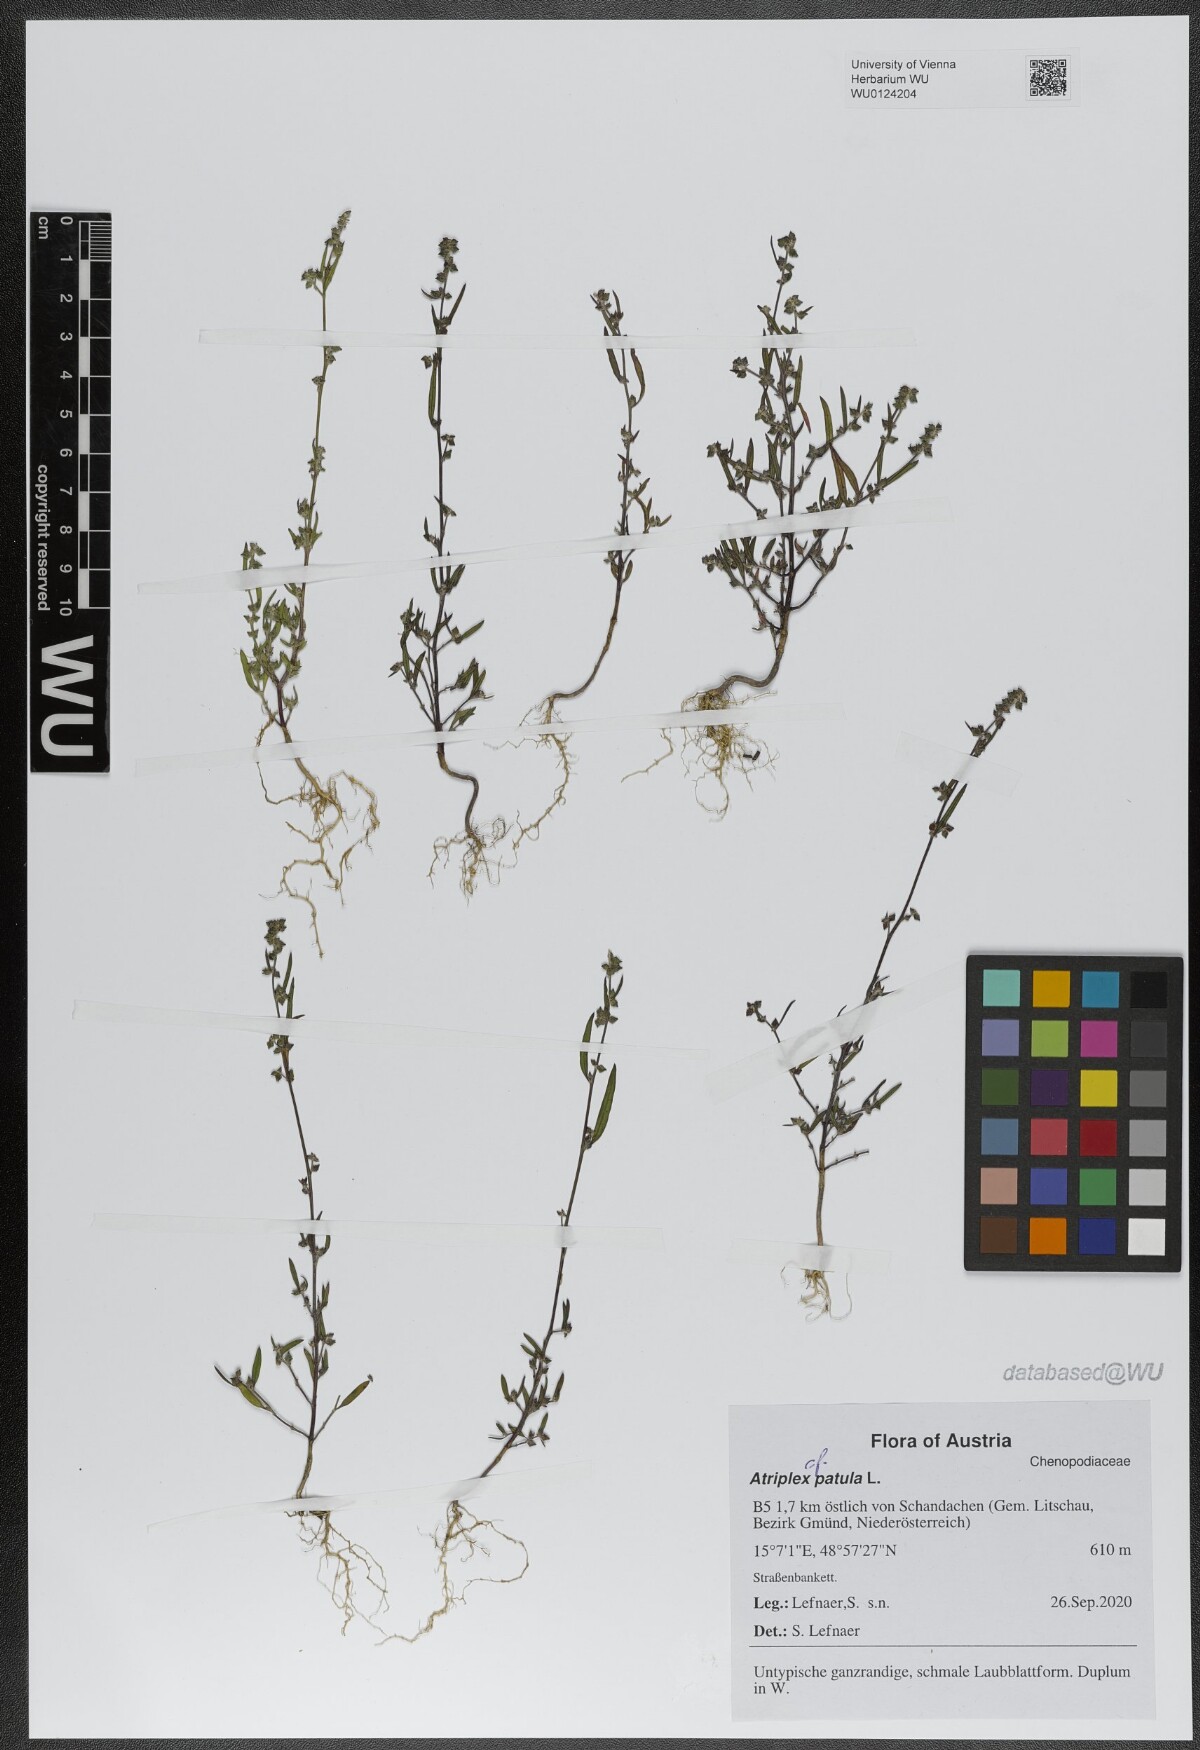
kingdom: Plantae
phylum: Tracheophyta
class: Magnoliopsida
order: Caryophyllales
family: Amaranthaceae
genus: Atriplex
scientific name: Atriplex patula
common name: Common orache
